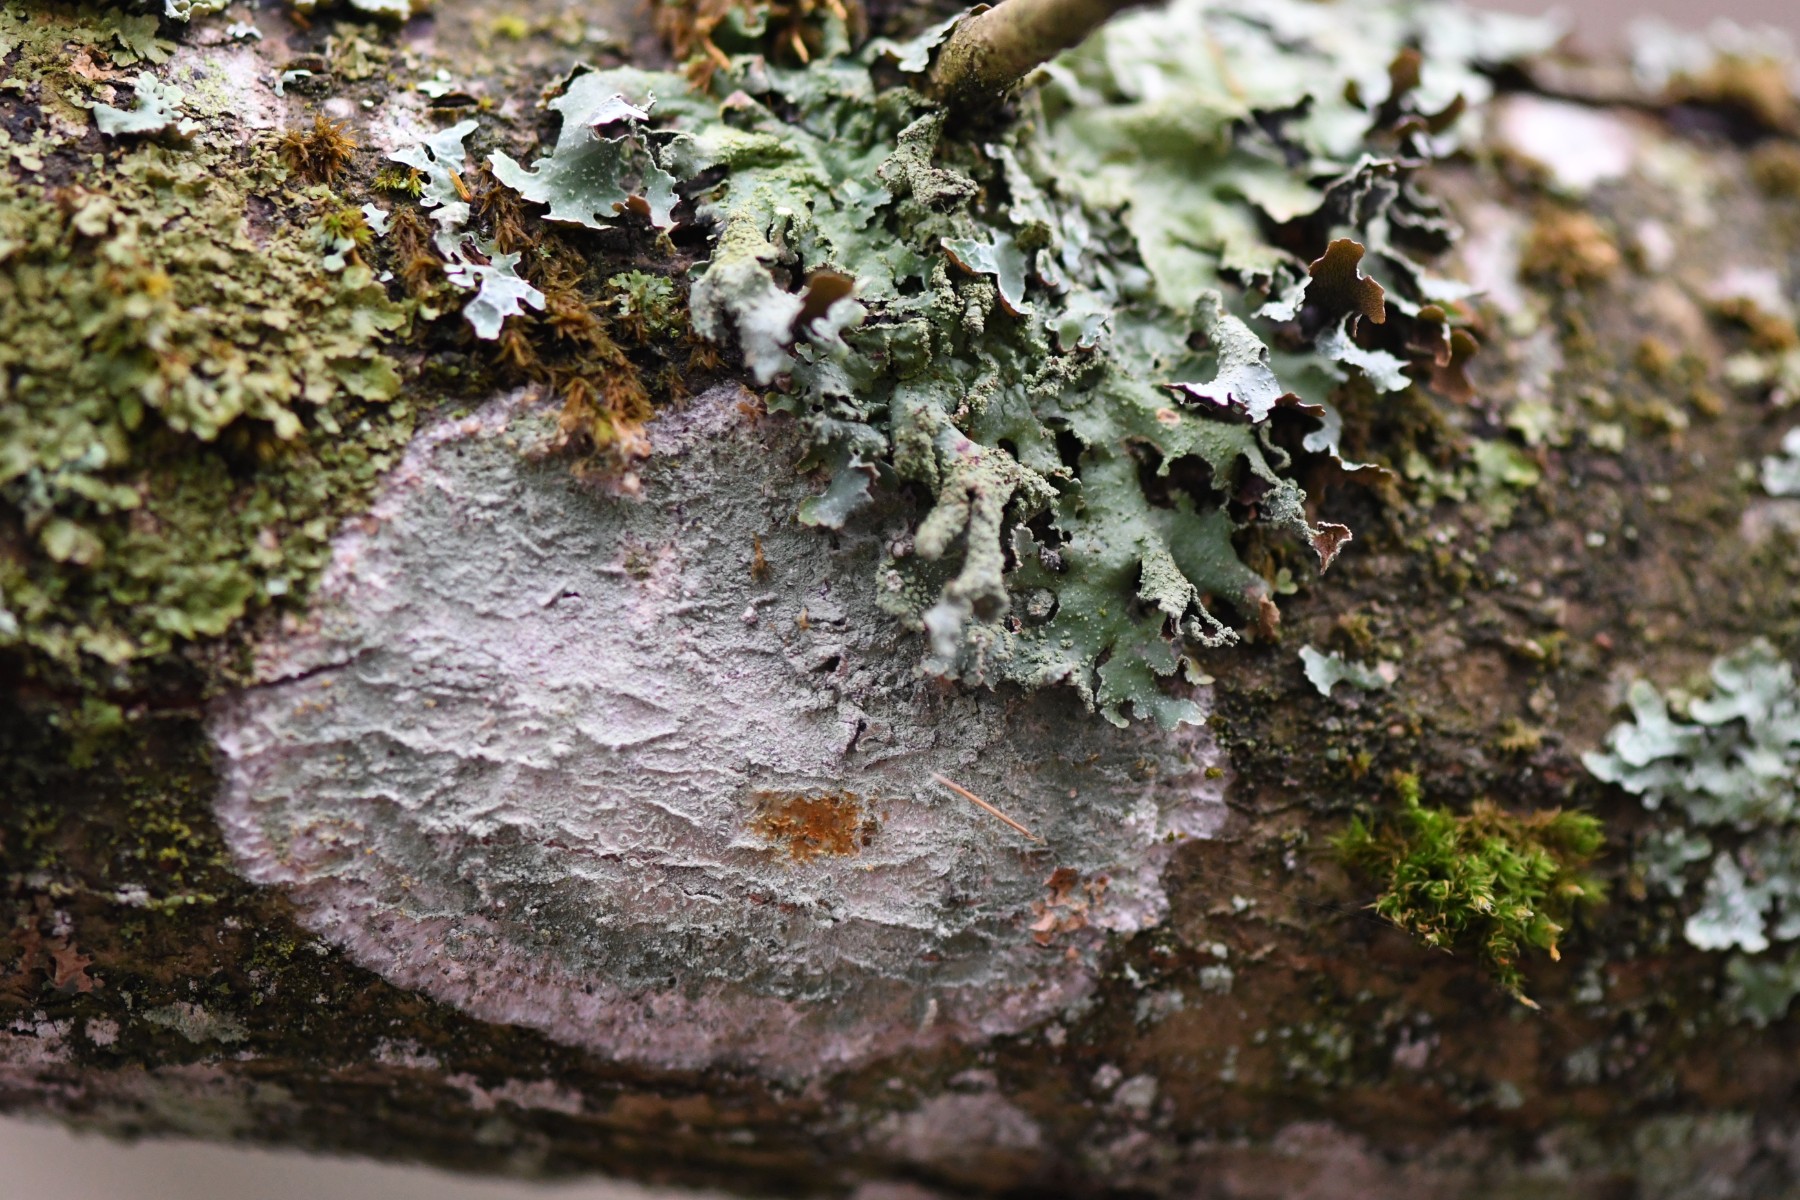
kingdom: Fungi
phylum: Ascomycota
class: Lecanoromycetes
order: Ostropales
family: Phlyctidaceae
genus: Phlyctis
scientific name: Phlyctis argena
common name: almindelig sølvlav
